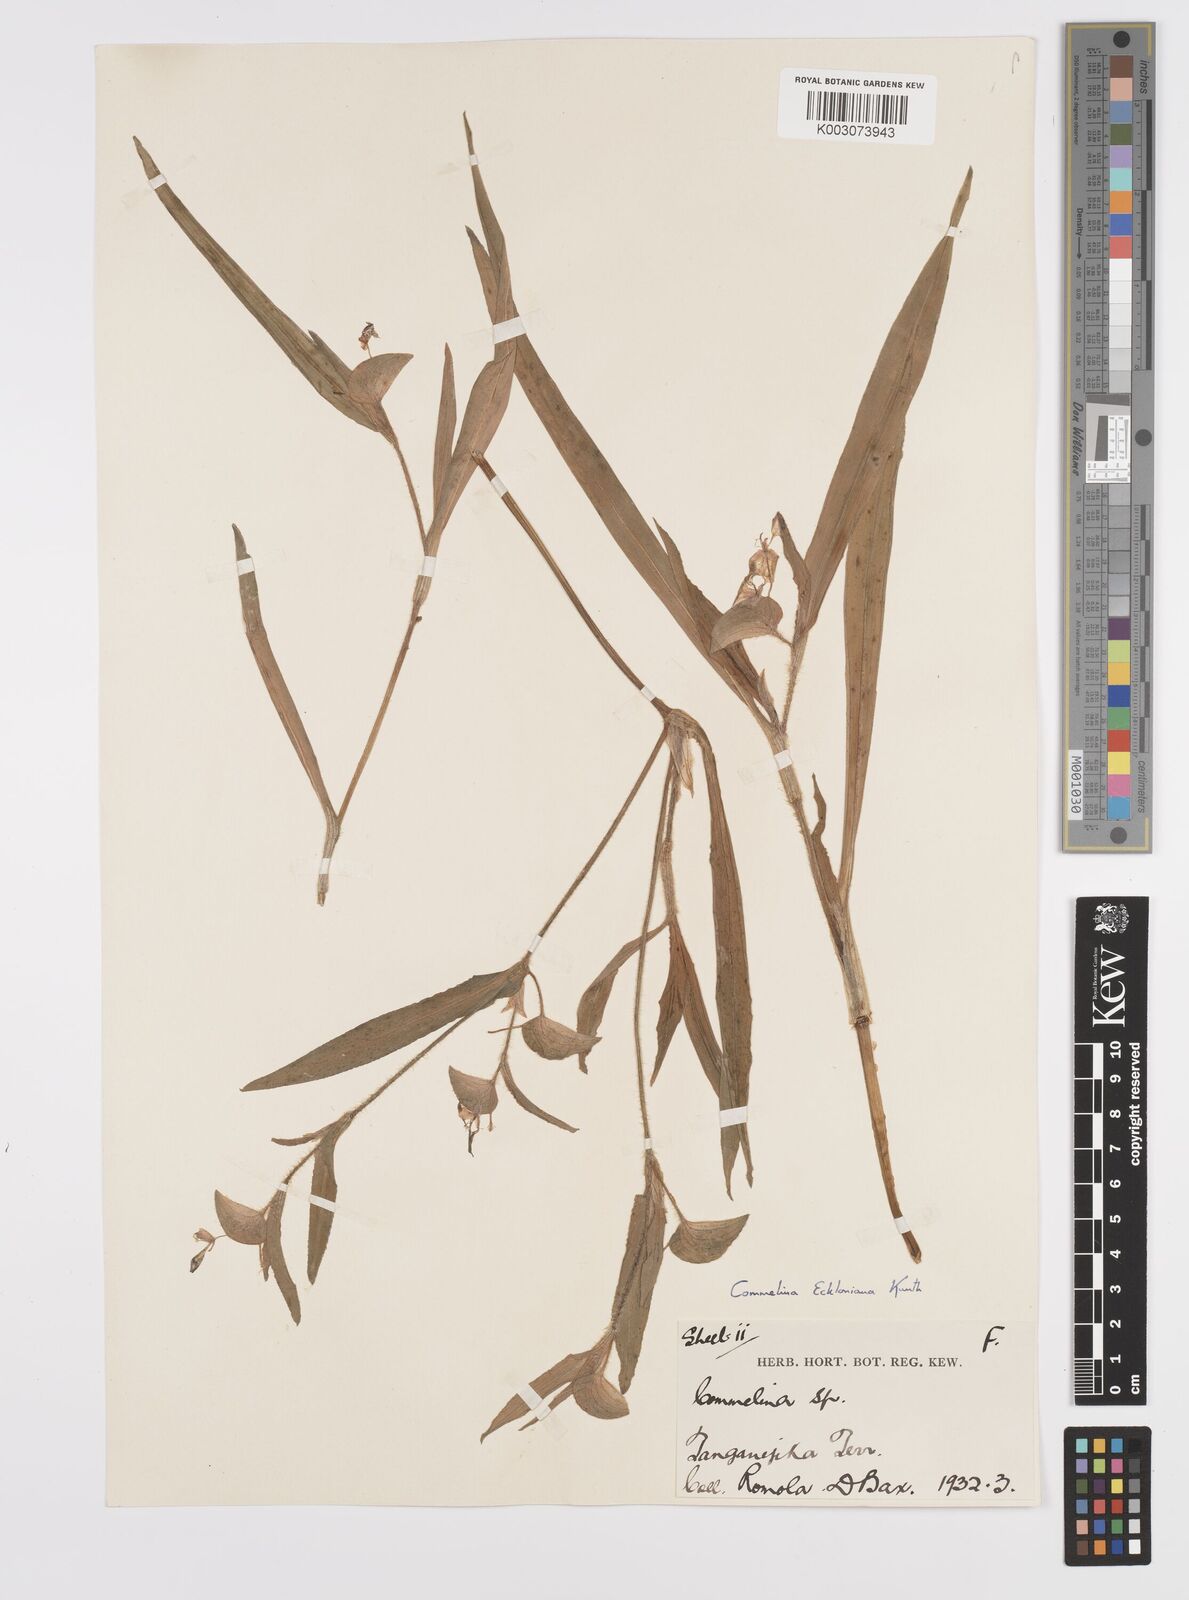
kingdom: Plantae
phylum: Tracheophyta
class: Liliopsida
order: Commelinales
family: Commelinaceae
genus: Commelina
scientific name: Commelina eckloniana
